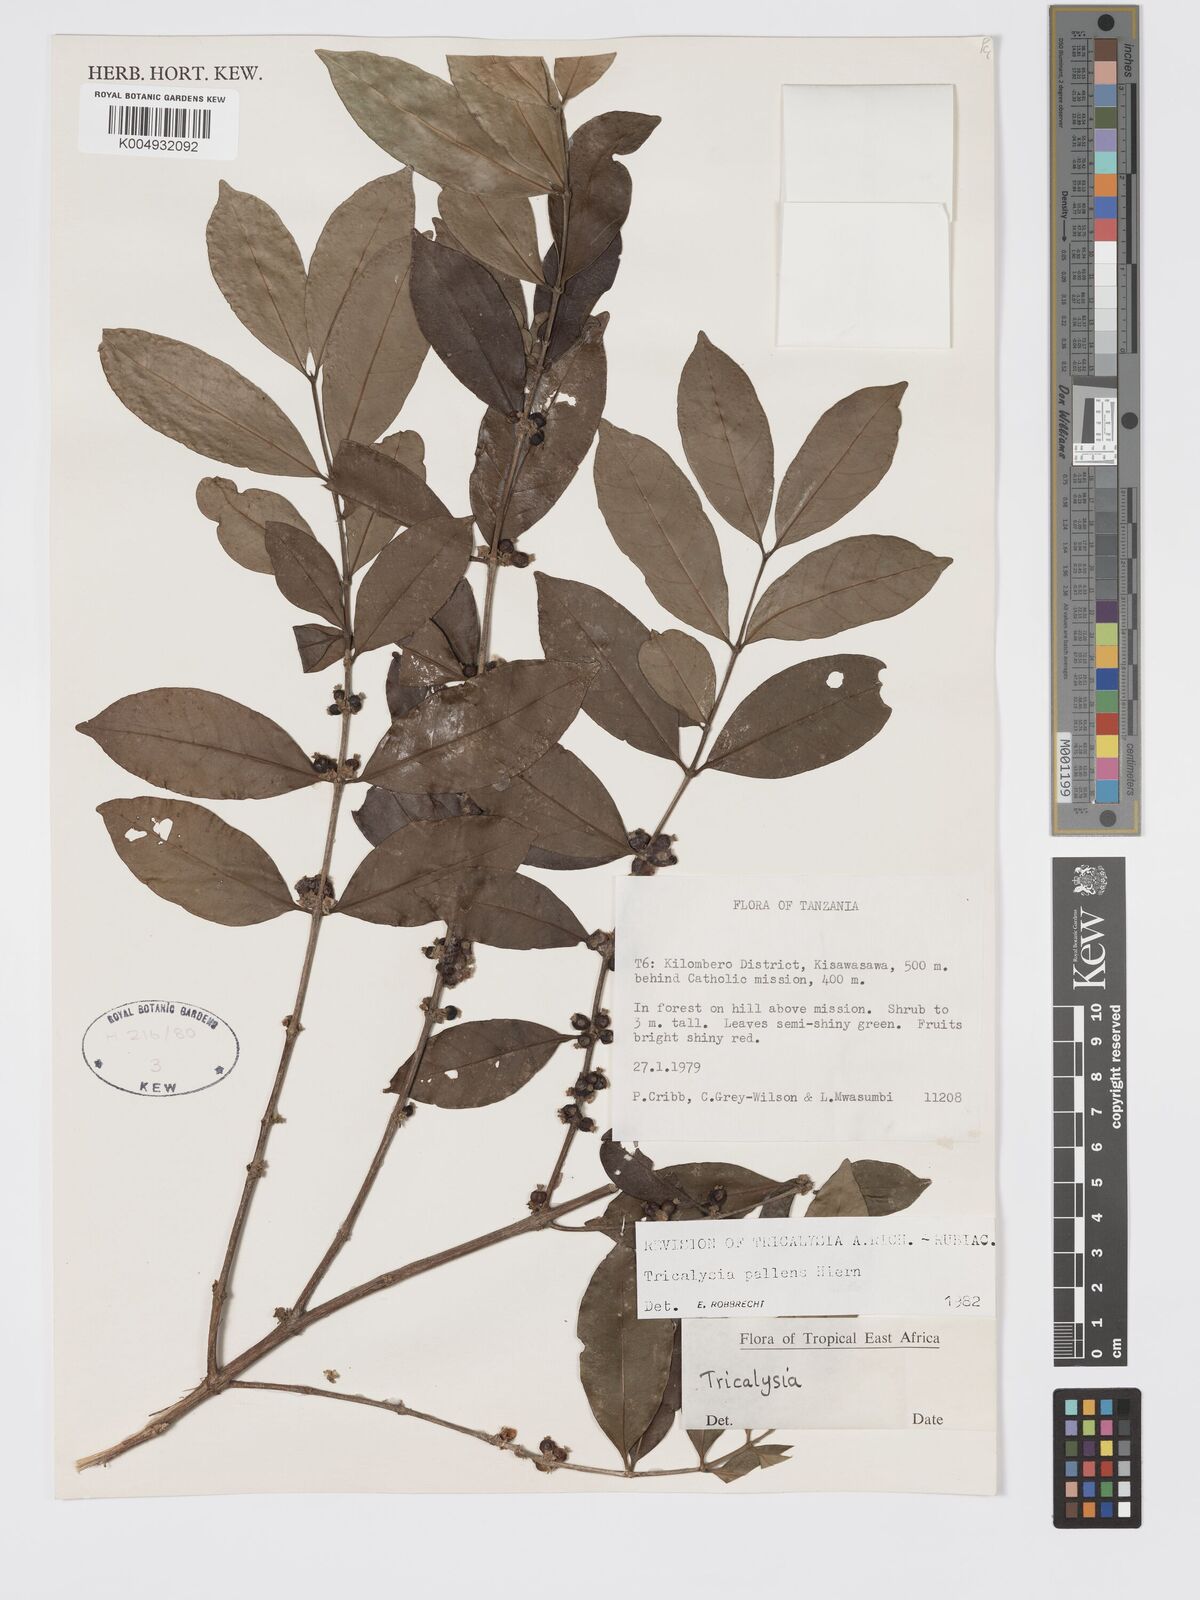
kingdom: Plantae
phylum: Tracheophyta
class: Magnoliopsida
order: Gentianales
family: Rubiaceae
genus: Tricalysia
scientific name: Tricalysia pallens
